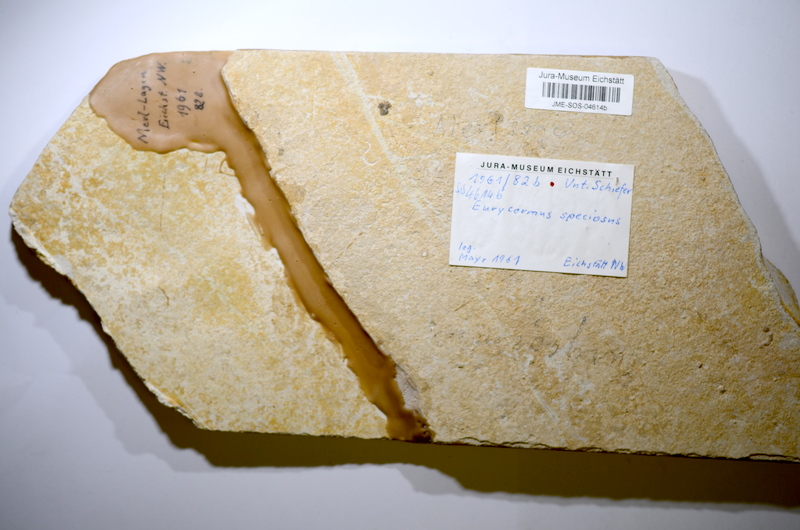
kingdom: Animalia
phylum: Chordata
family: Eurycormidae
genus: Eurycormus
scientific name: Eurycormus speciosus
